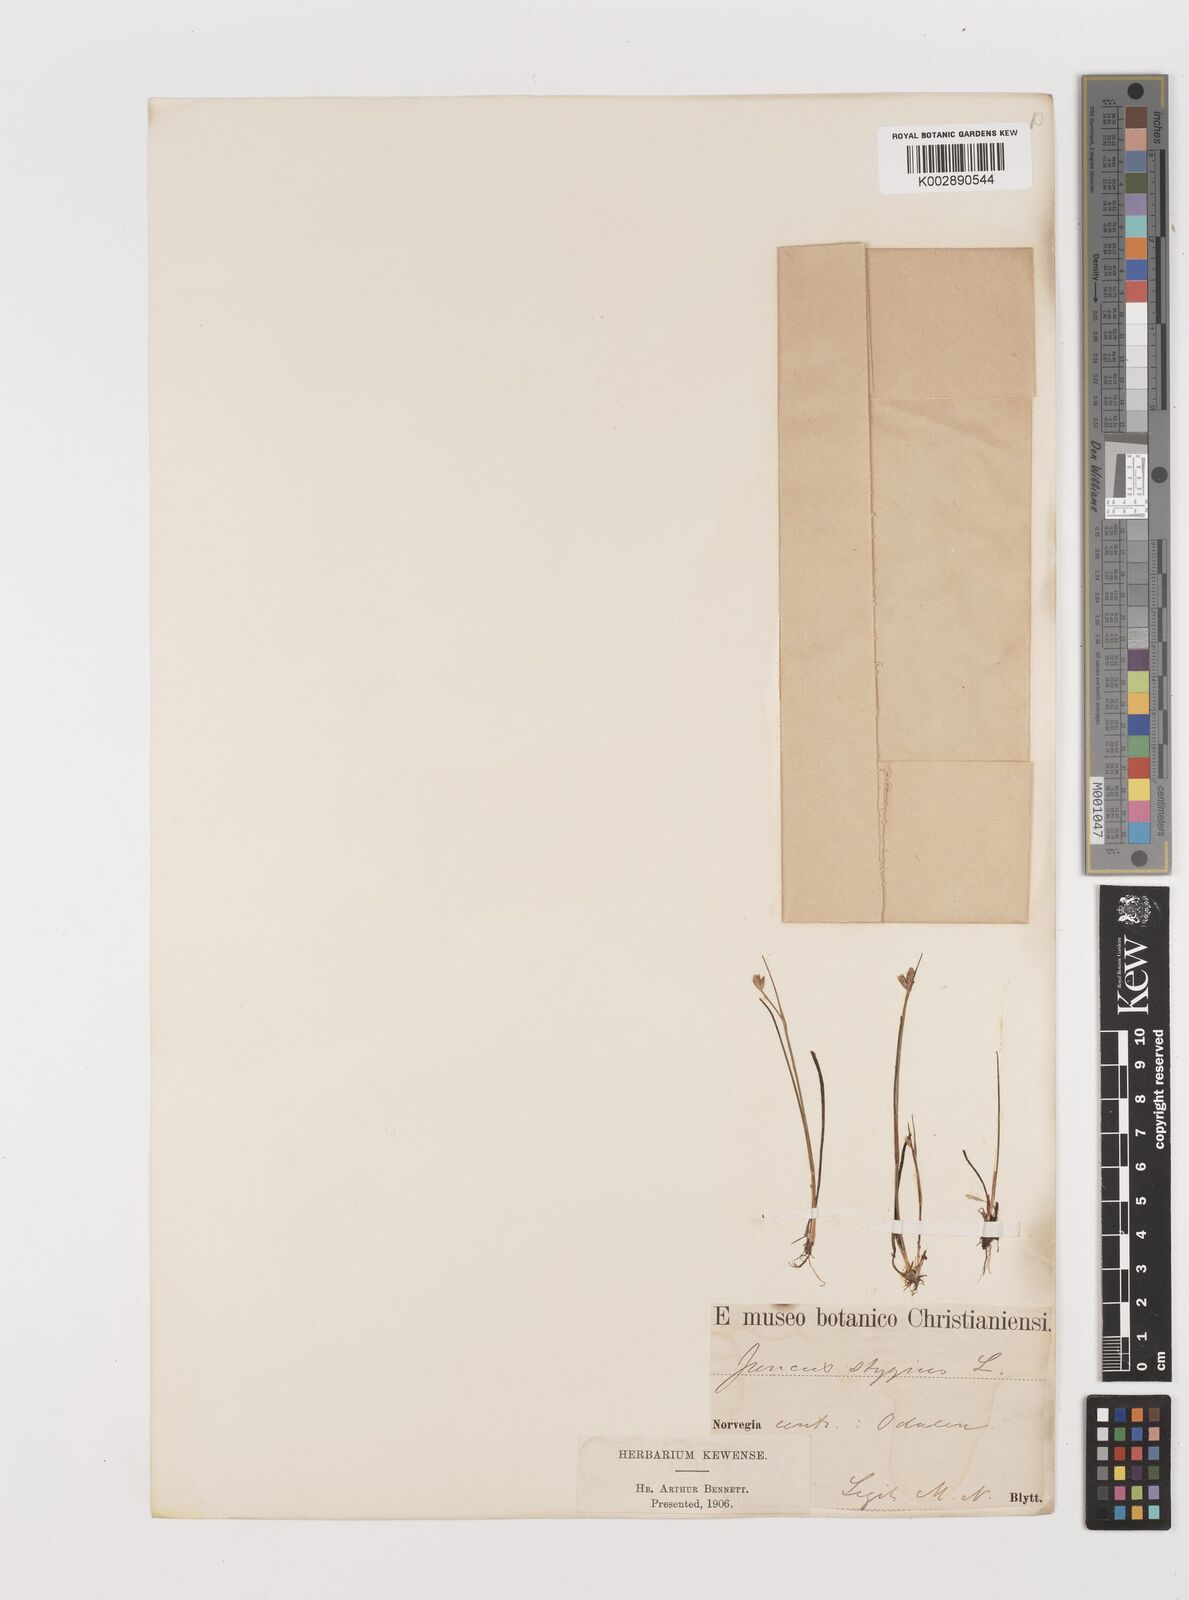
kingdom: Plantae
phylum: Tracheophyta
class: Liliopsida
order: Poales
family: Juncaceae
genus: Juncus
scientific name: Juncus stygius
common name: Bog rush
